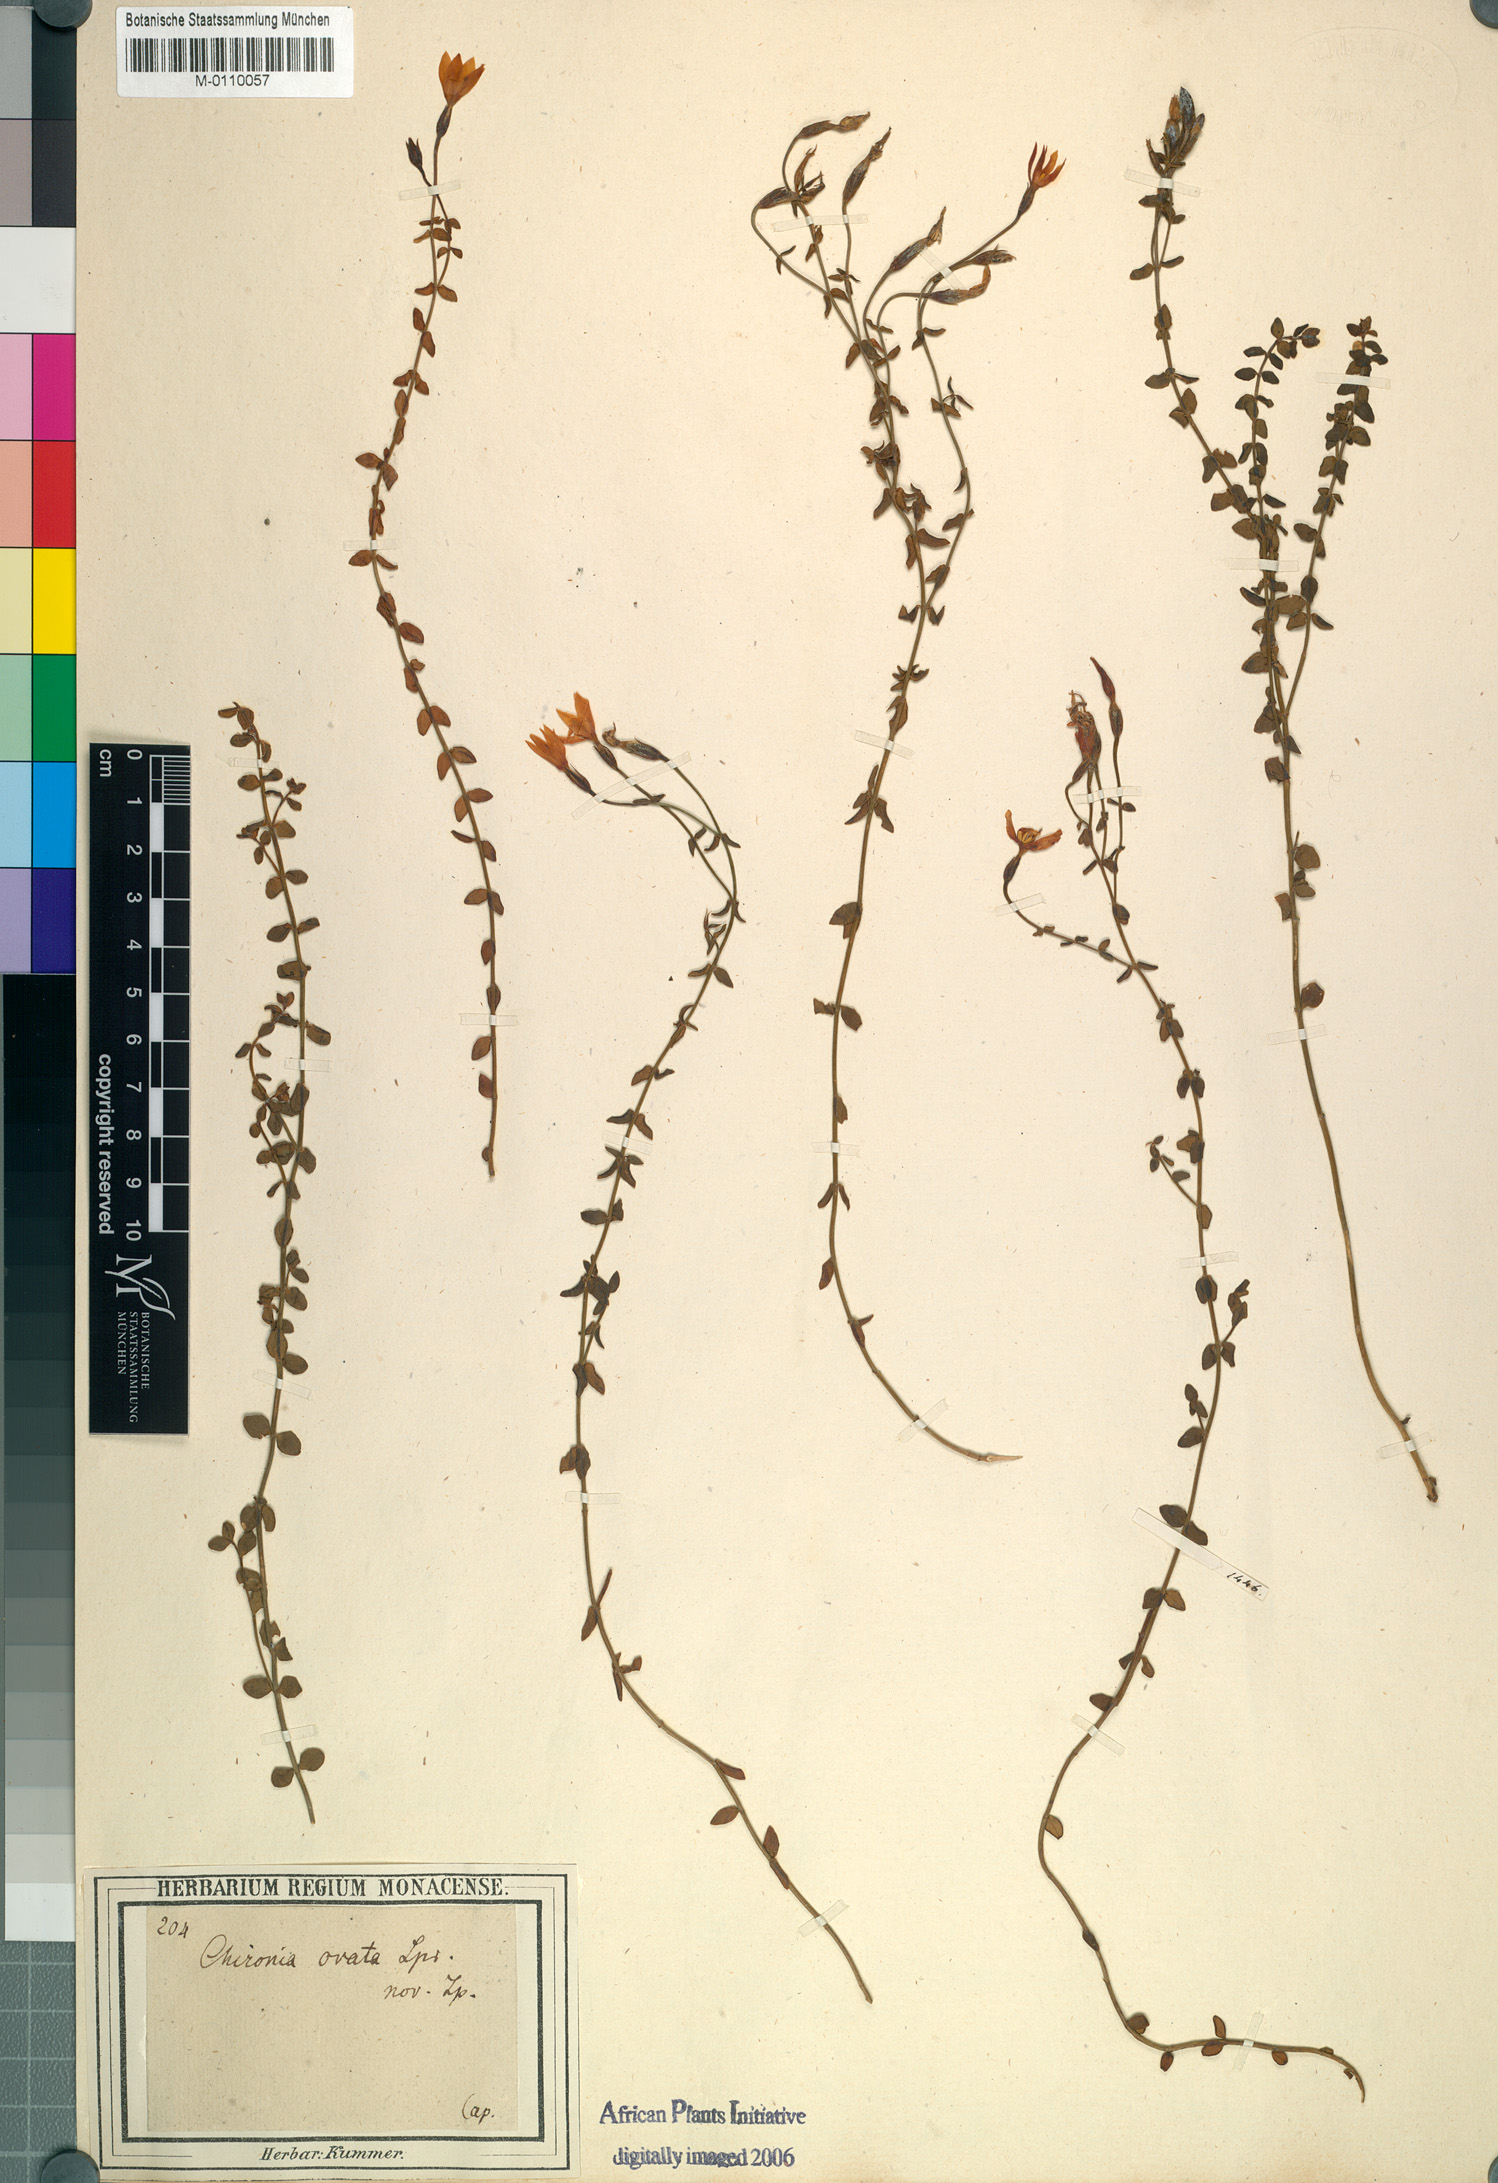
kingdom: Plantae
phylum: Tracheophyta
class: Magnoliopsida
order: Gentianales
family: Gentianaceae
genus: Chironia
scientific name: Chironia serpyllifolia
